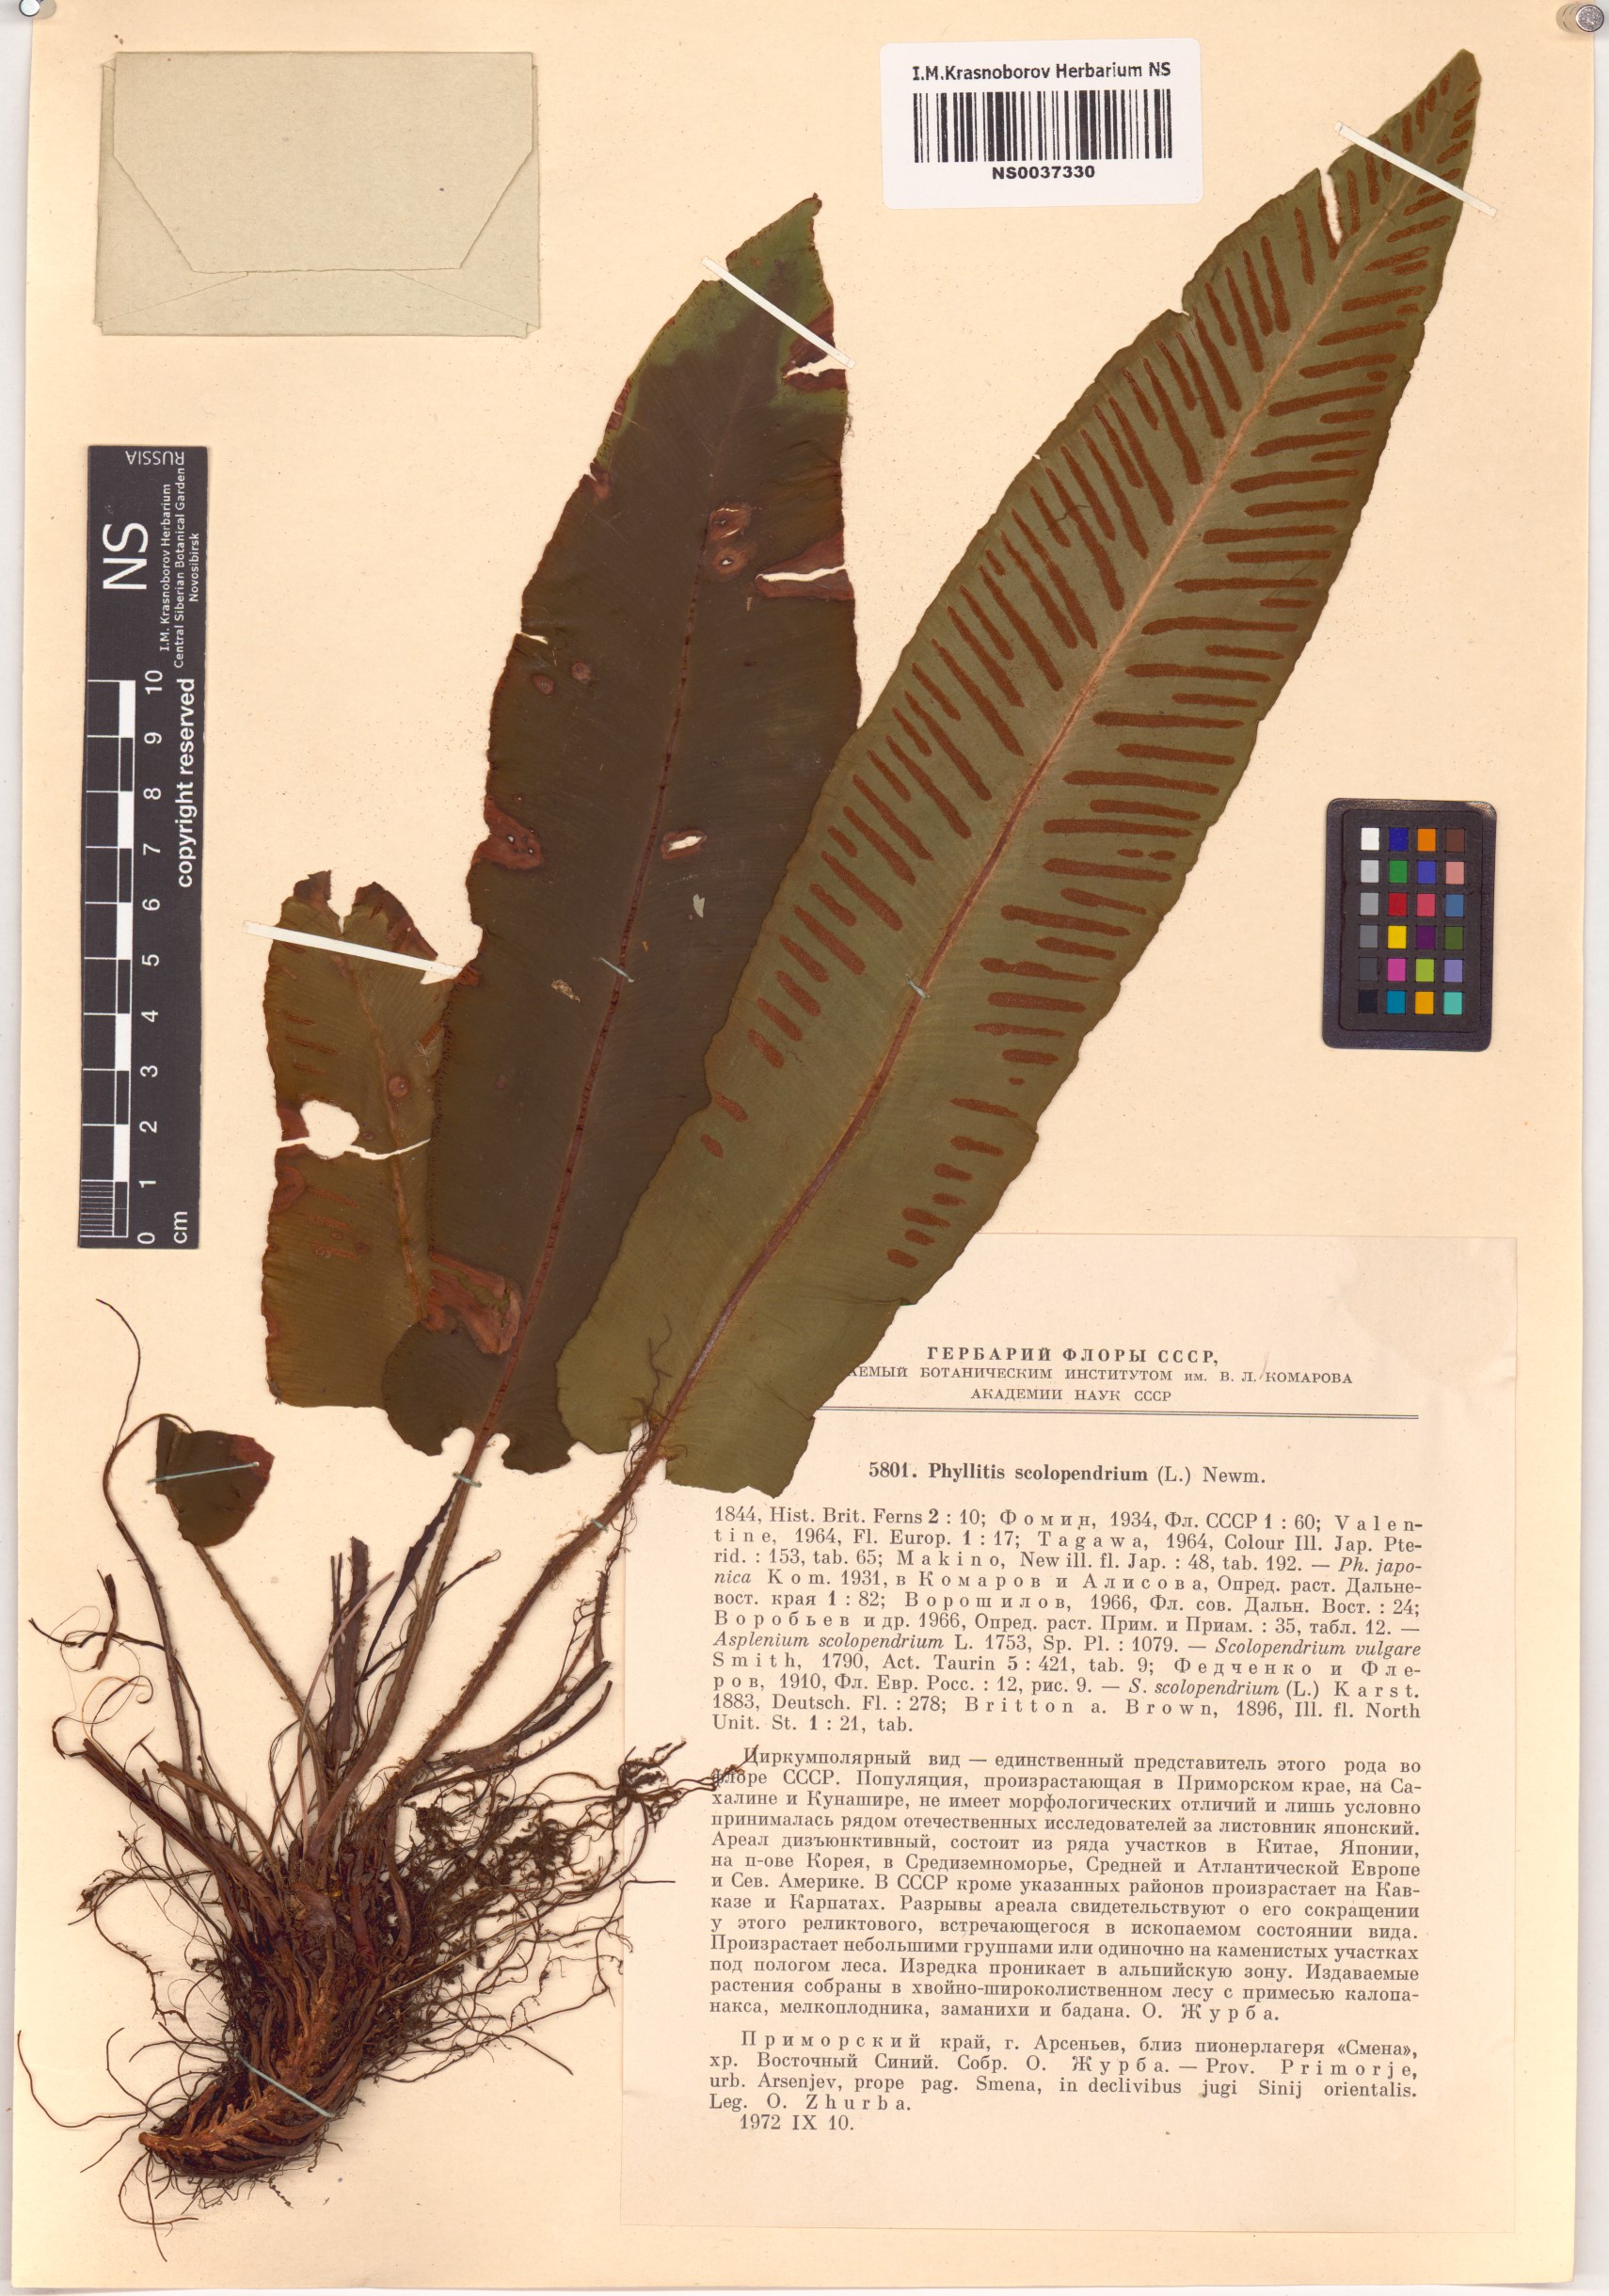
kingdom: Plantae
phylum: Tracheophyta
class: Polypodiopsida
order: Polypodiales
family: Aspleniaceae
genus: Asplenium
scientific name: Asplenium scolopendrium
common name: Hart's-tongue fern
